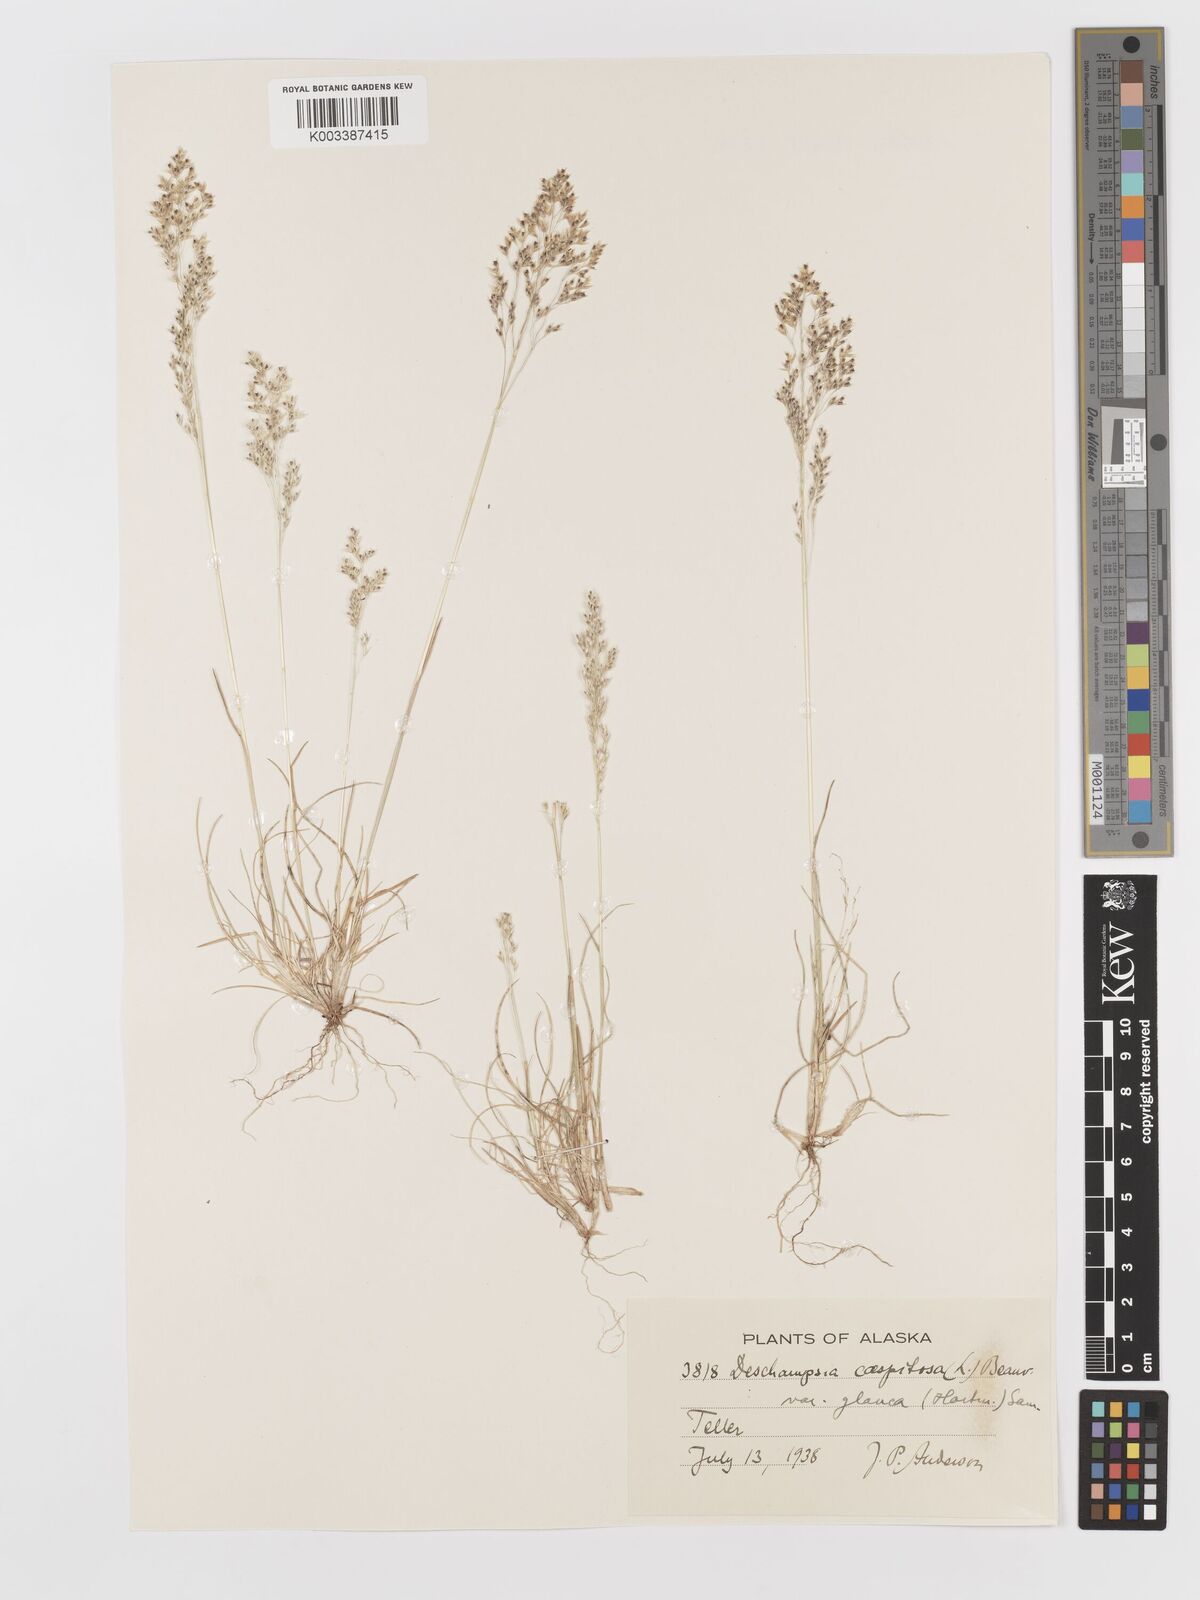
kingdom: Plantae
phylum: Tracheophyta
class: Liliopsida
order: Poales
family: Poaceae
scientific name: Poaceae
